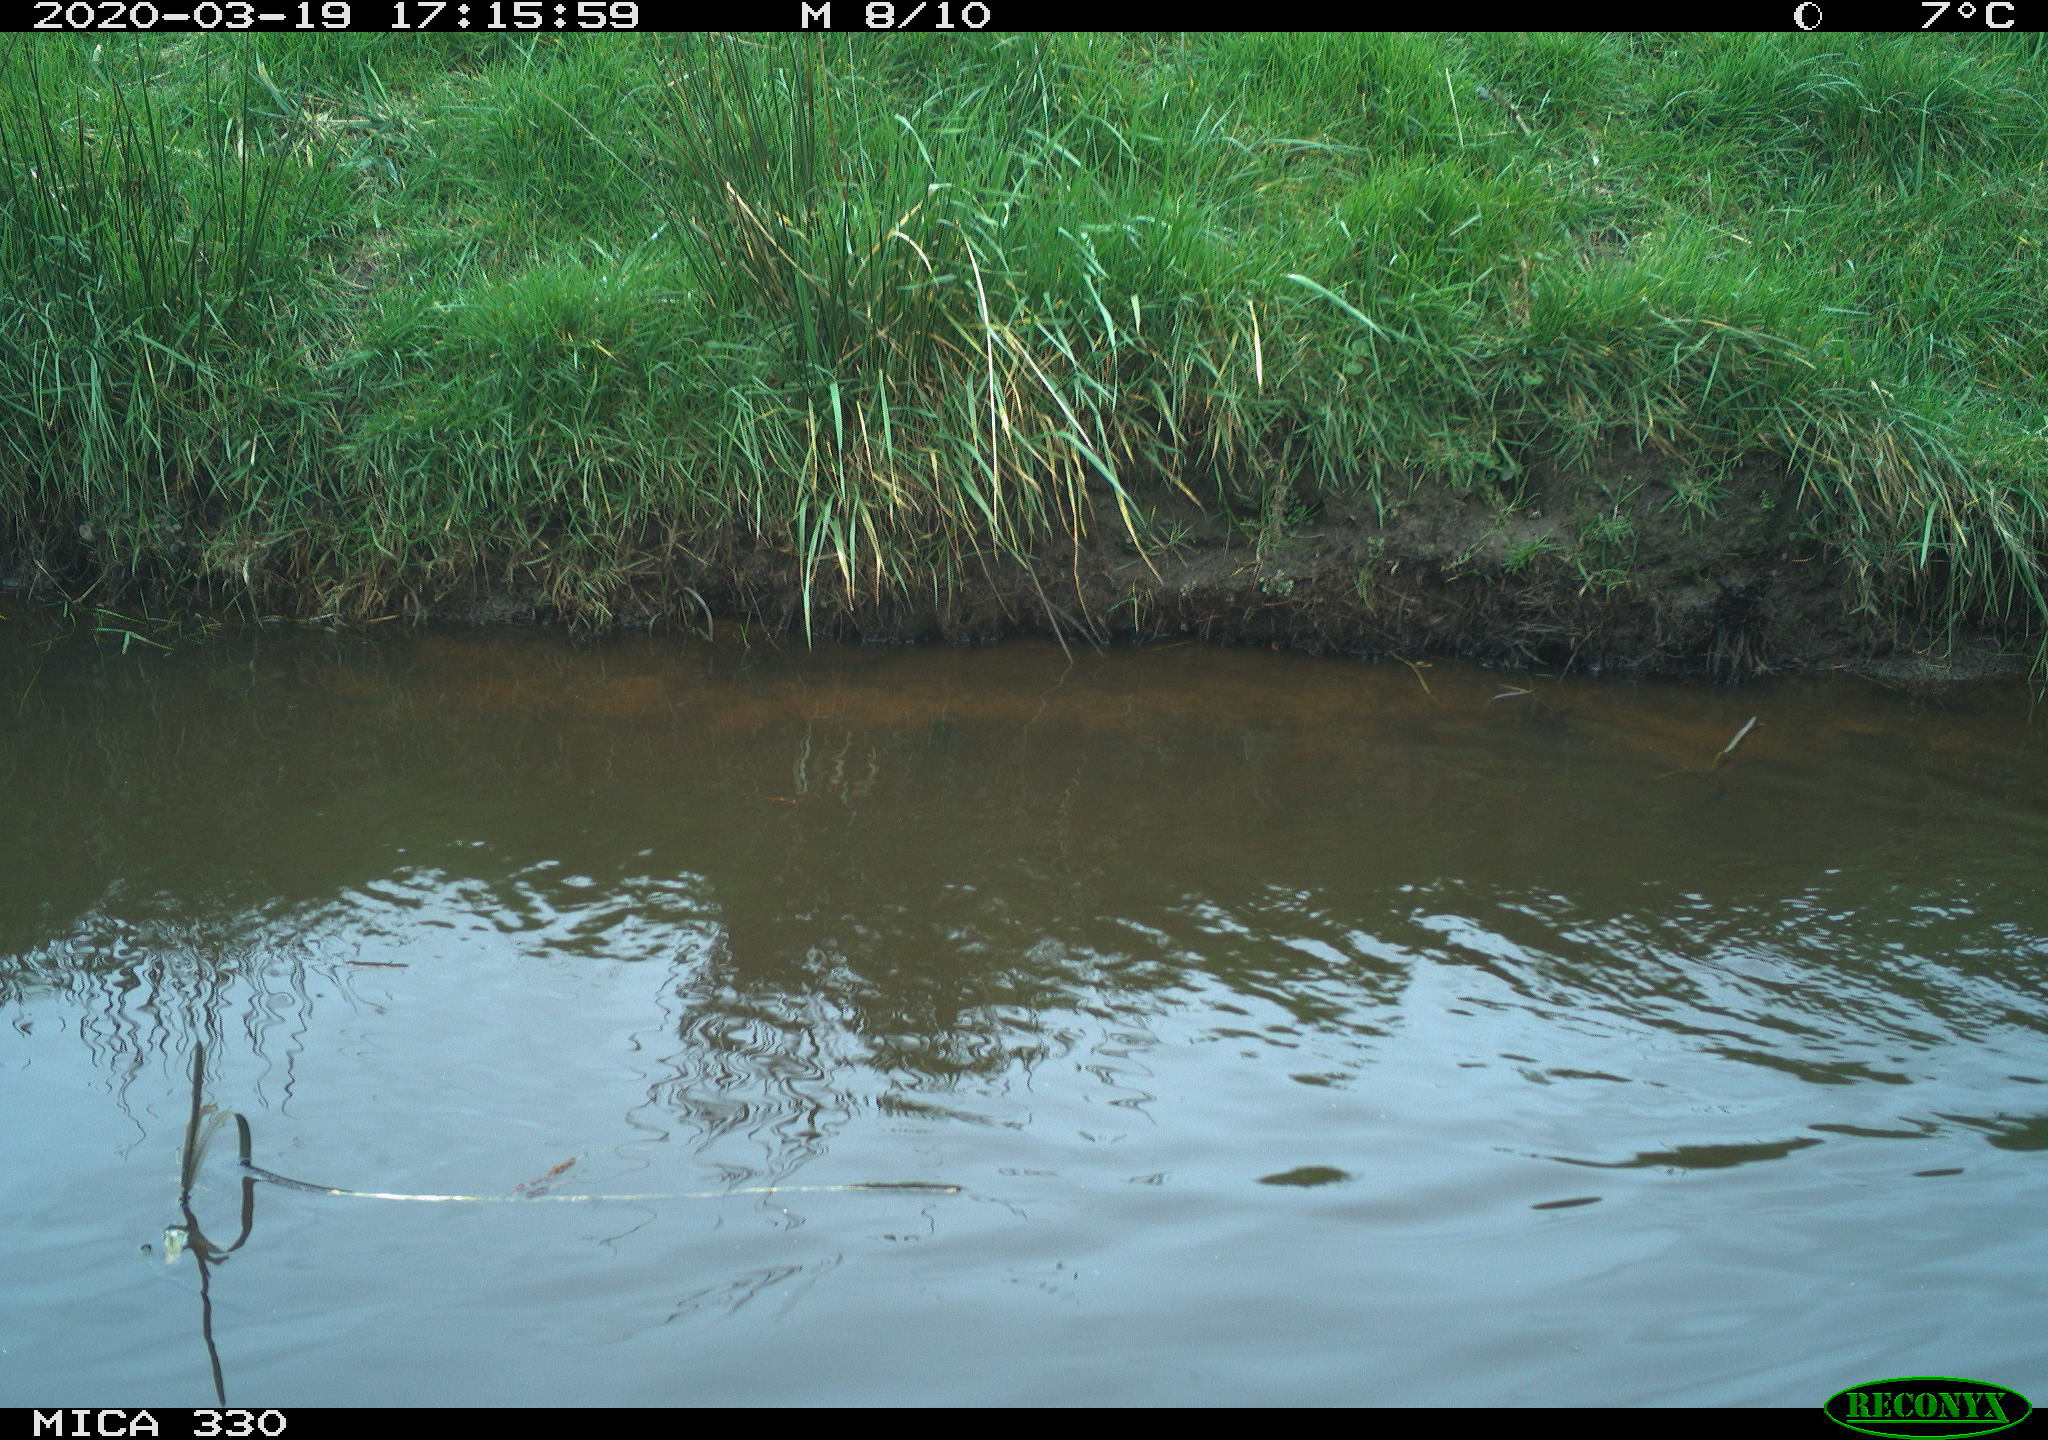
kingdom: Animalia
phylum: Chordata
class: Aves
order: Anseriformes
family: Anatidae
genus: Anas
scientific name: Anas platyrhynchos
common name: Mallard
